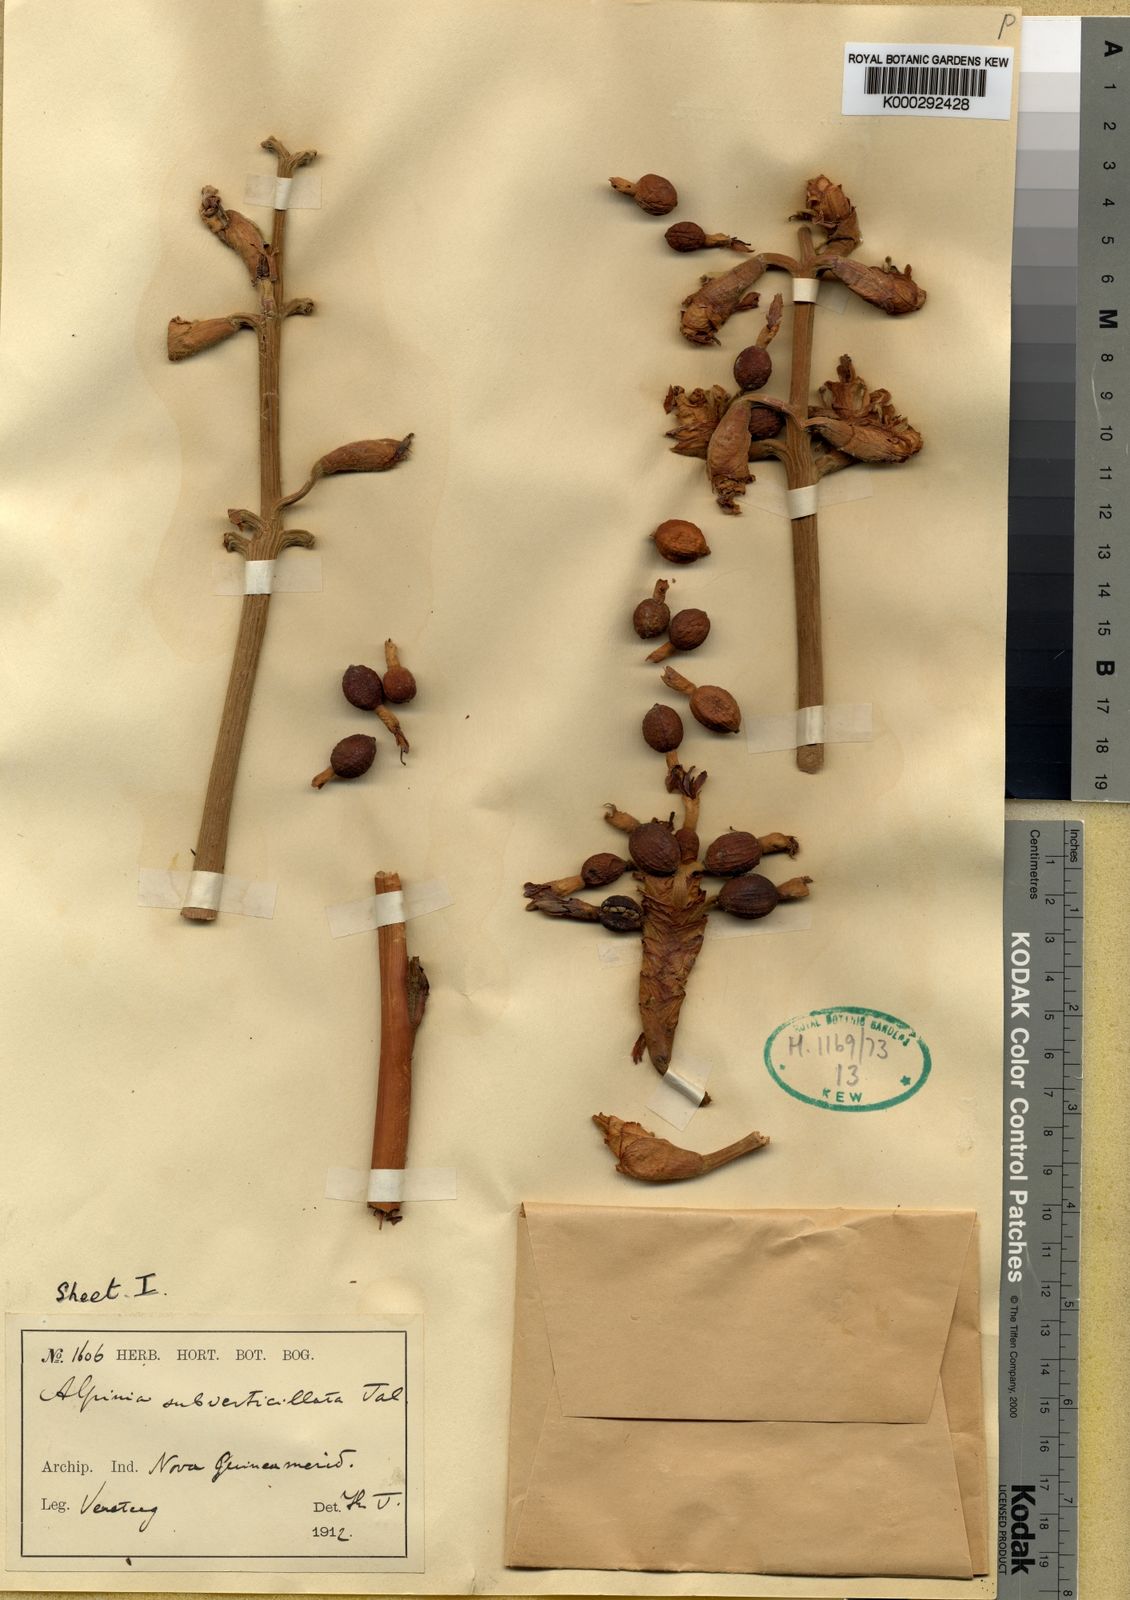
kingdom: Plantae
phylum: Tracheophyta
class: Liliopsida
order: Zingiberales
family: Zingiberaceae
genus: Alpinia
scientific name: Alpinia subverticillata
